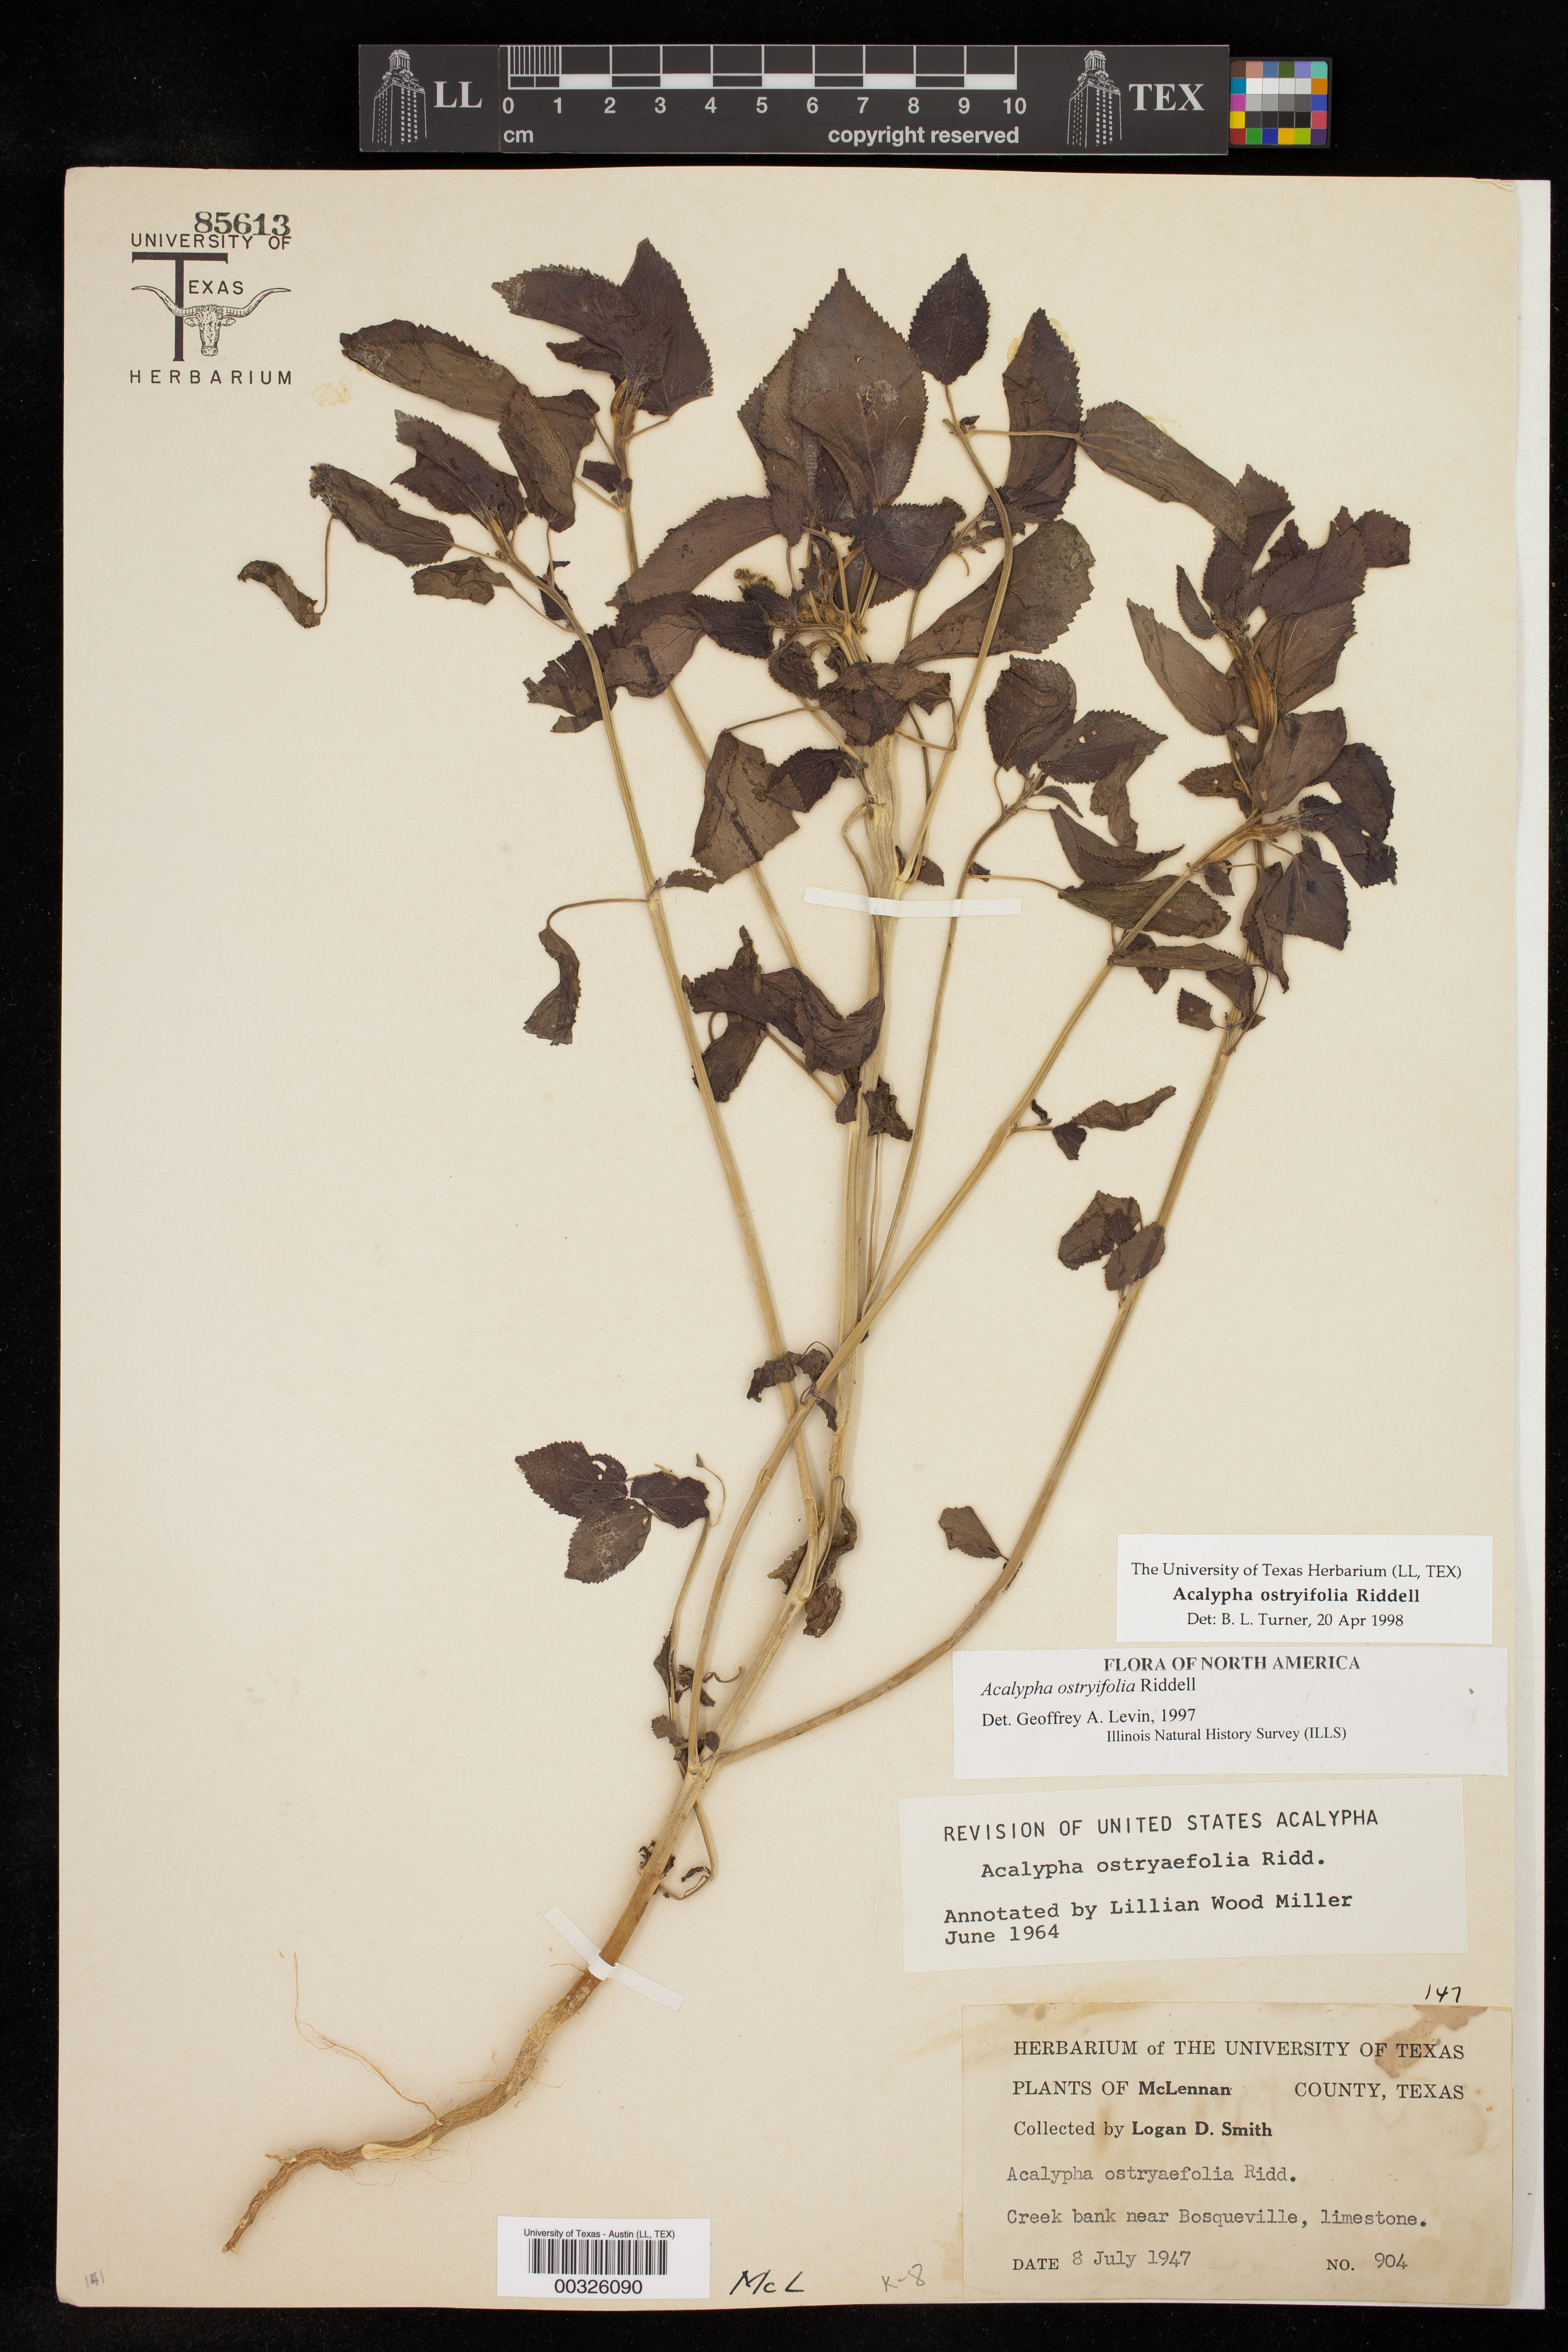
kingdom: Plantae
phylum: Tracheophyta
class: Magnoliopsida
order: Malpighiales
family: Euphorbiaceae
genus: Acalypha
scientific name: Acalypha ostryifolia
